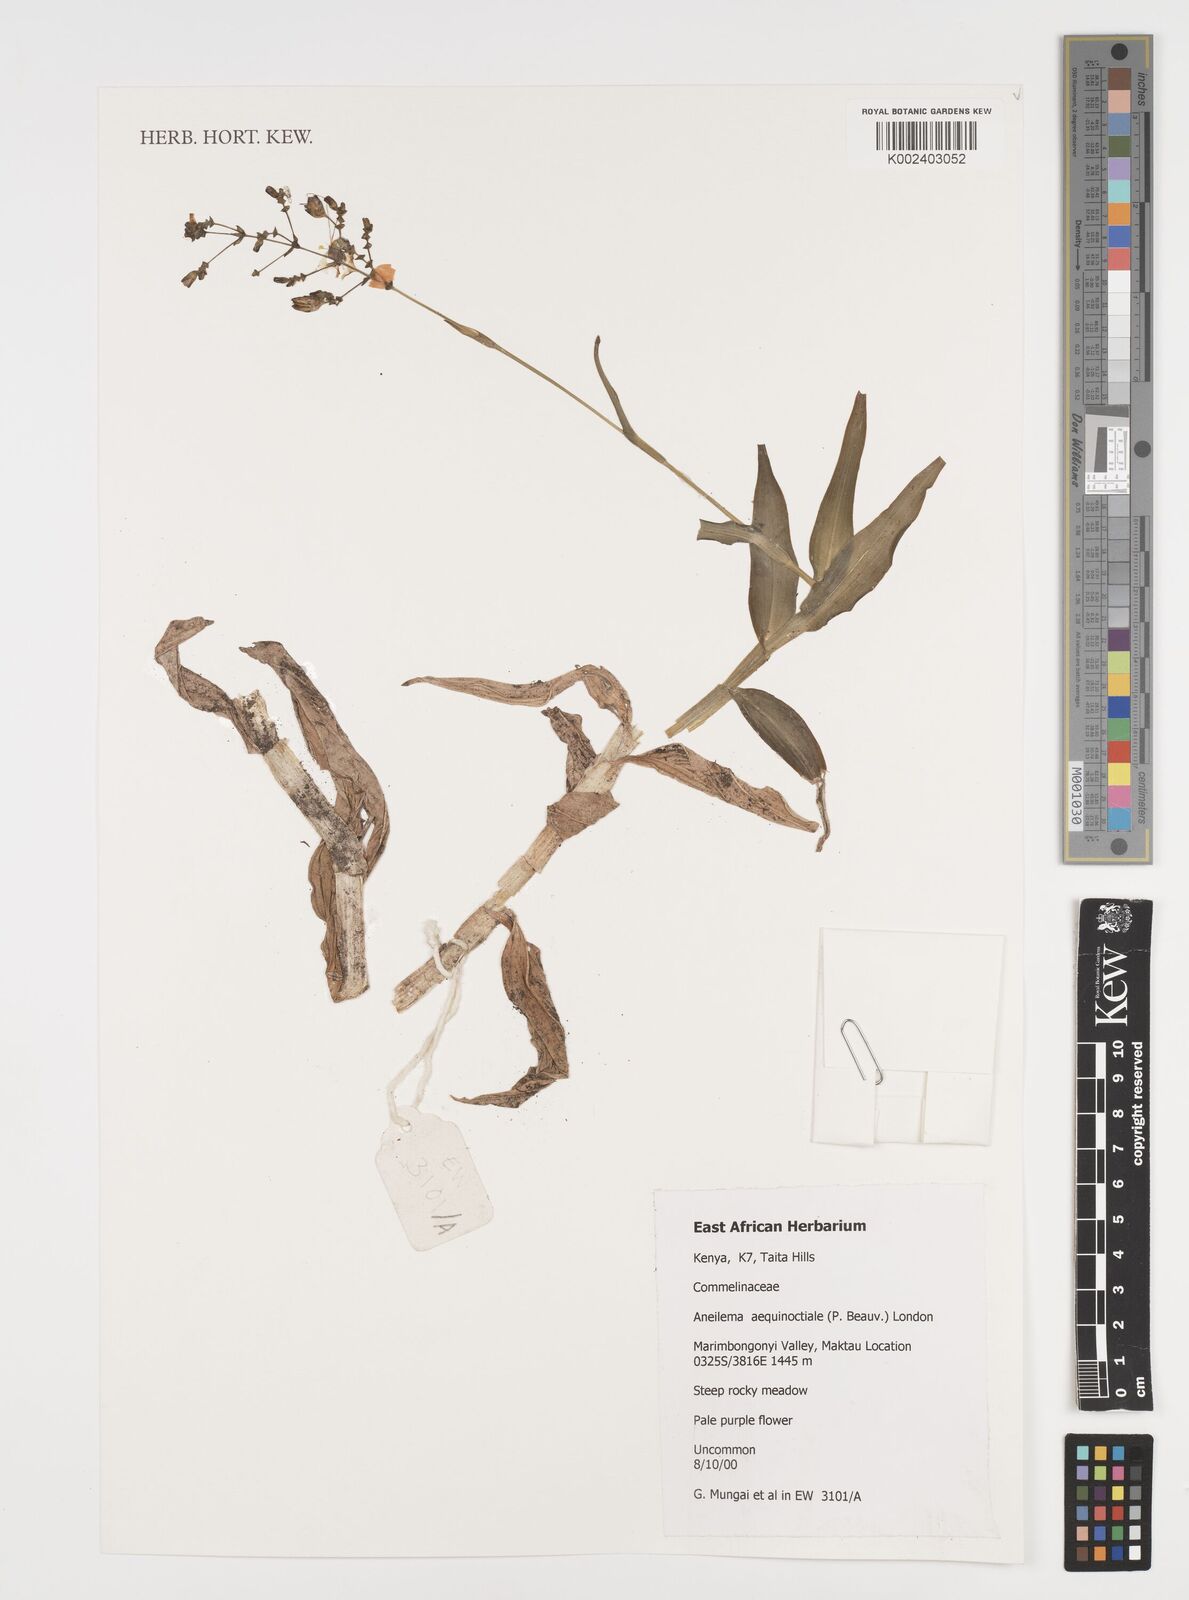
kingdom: Plantae
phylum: Tracheophyta
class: Liliopsida
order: Commelinales
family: Commelinaceae
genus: Aneilema
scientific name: Aneilema aequinoctiale
